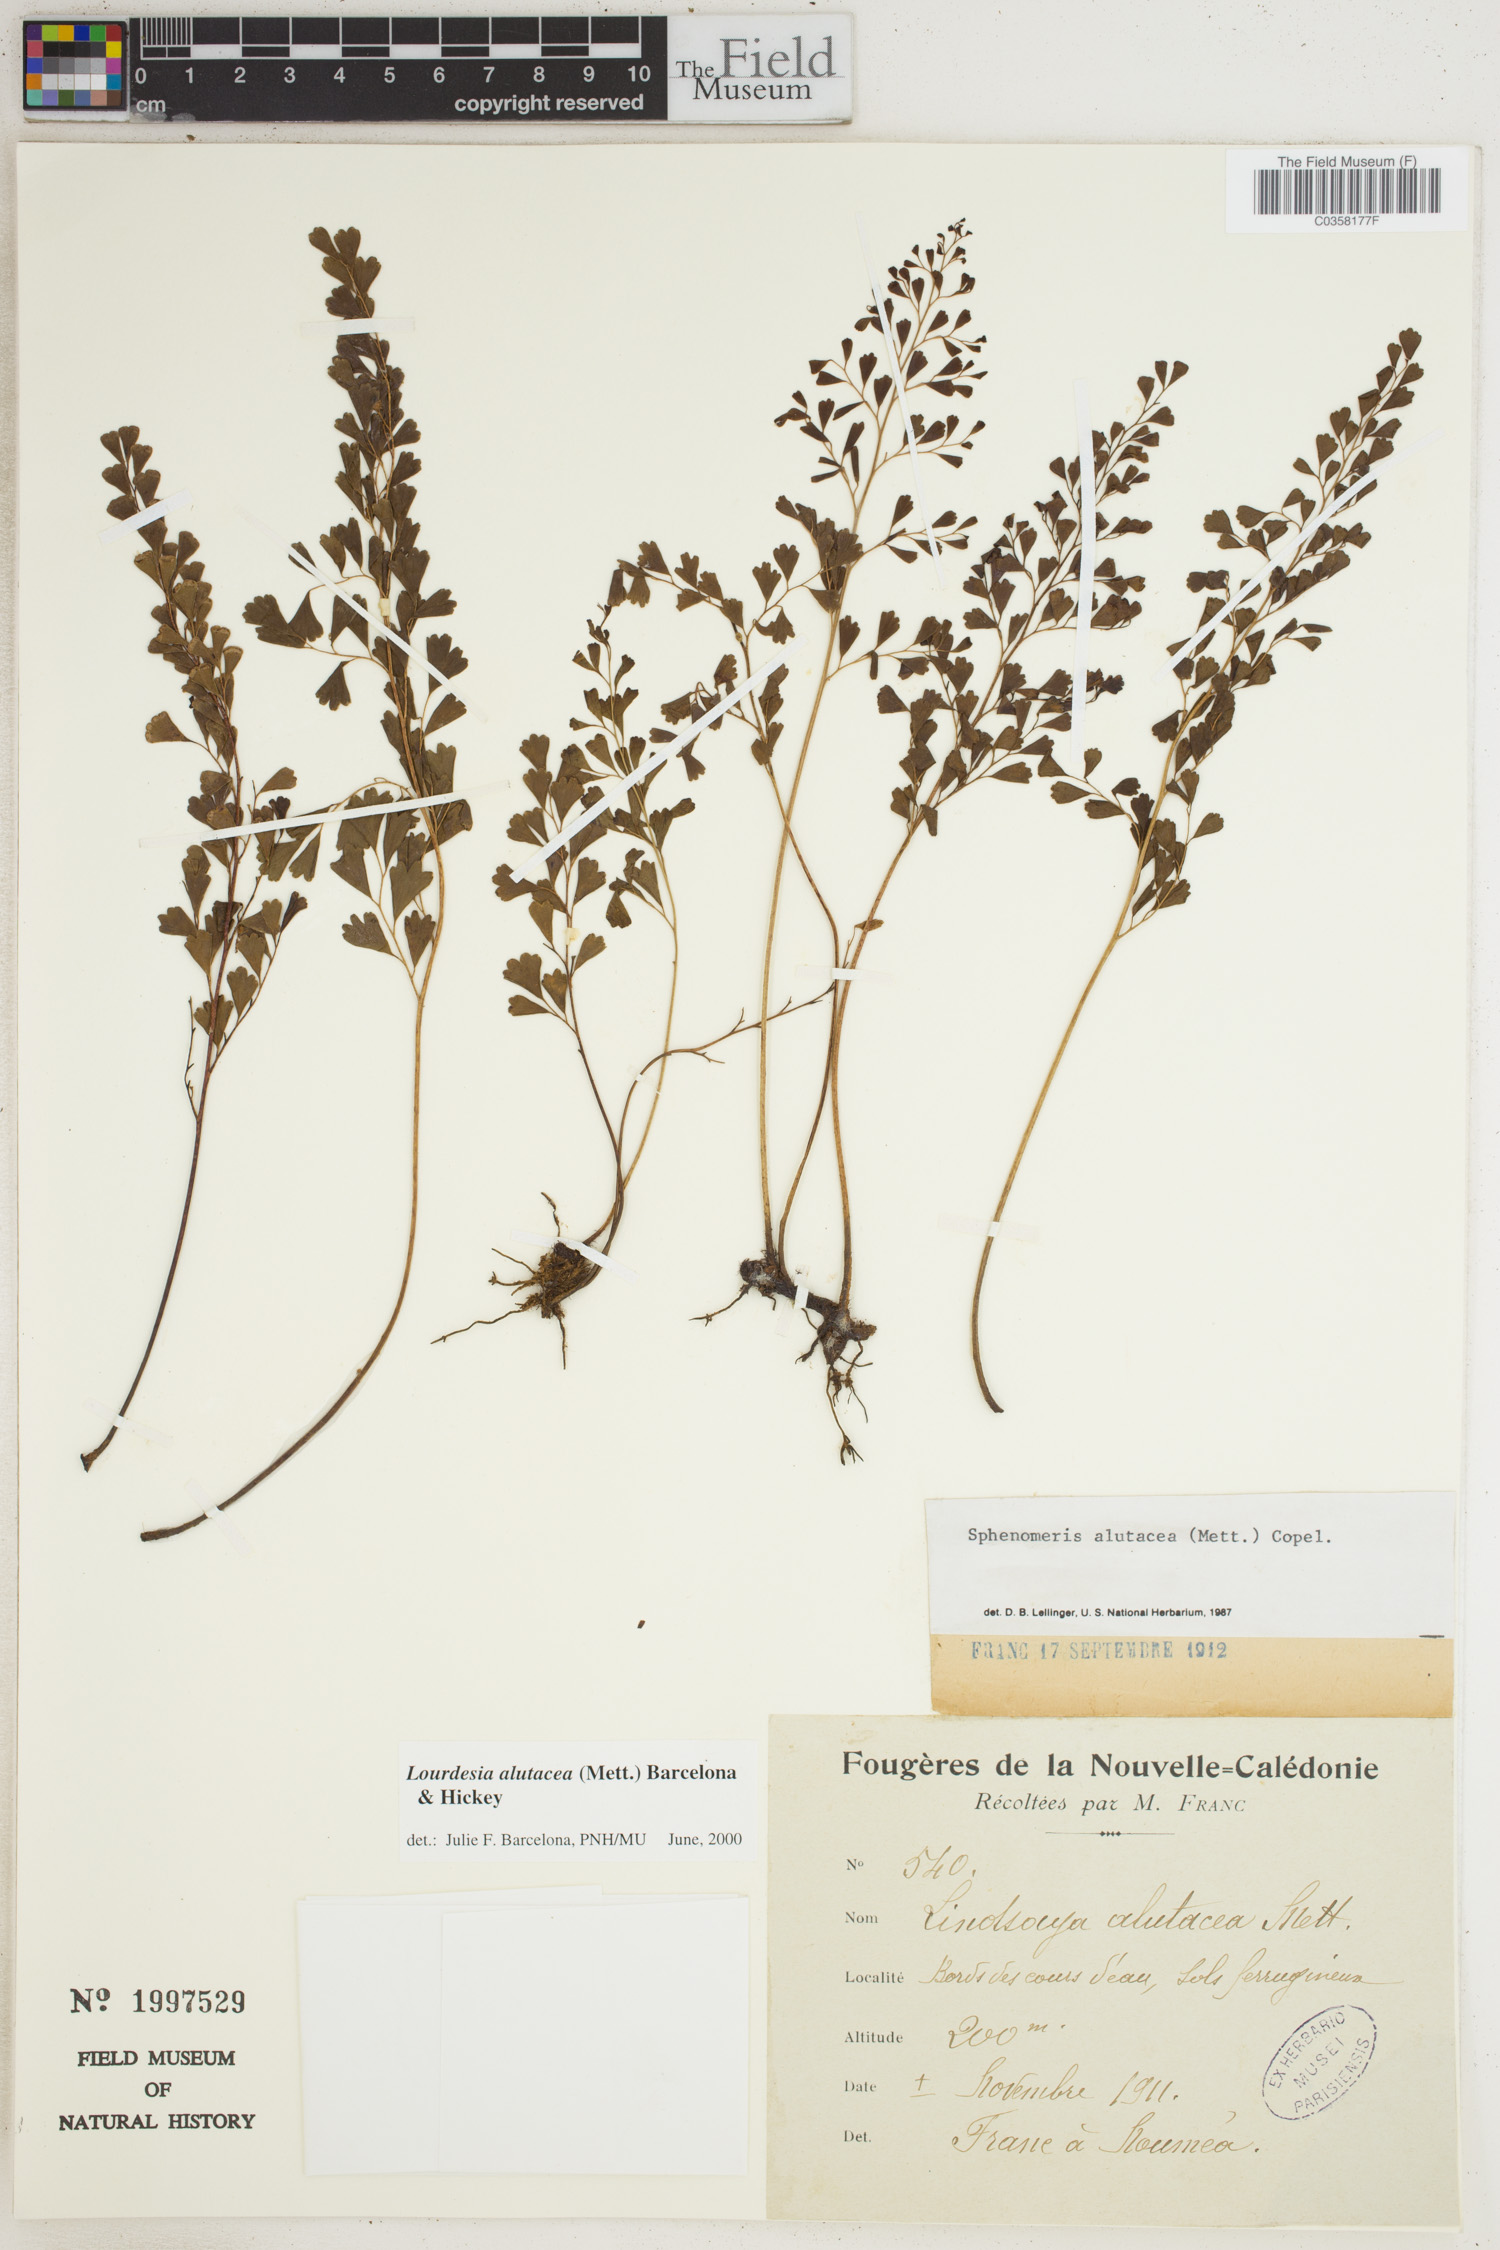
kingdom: Plantae
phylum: Tracheophyta
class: Polypodiopsida
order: Polypodiales
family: Lindsaeaceae
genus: Odontosoria
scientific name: Odontosoria alutacea
